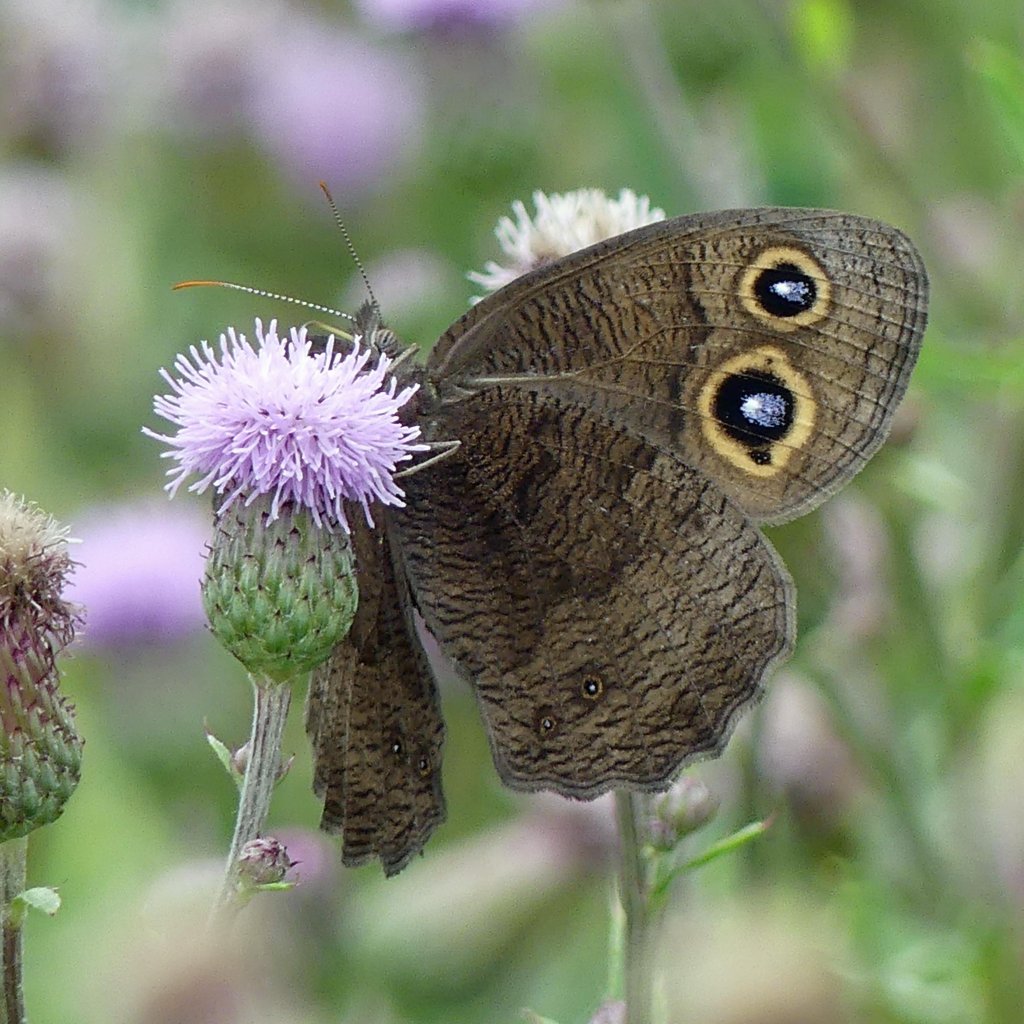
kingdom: Animalia
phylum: Arthropoda
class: Insecta
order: Lepidoptera
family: Nymphalidae
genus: Cercyonis
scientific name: Cercyonis pegala
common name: Common Wood-Nymph
